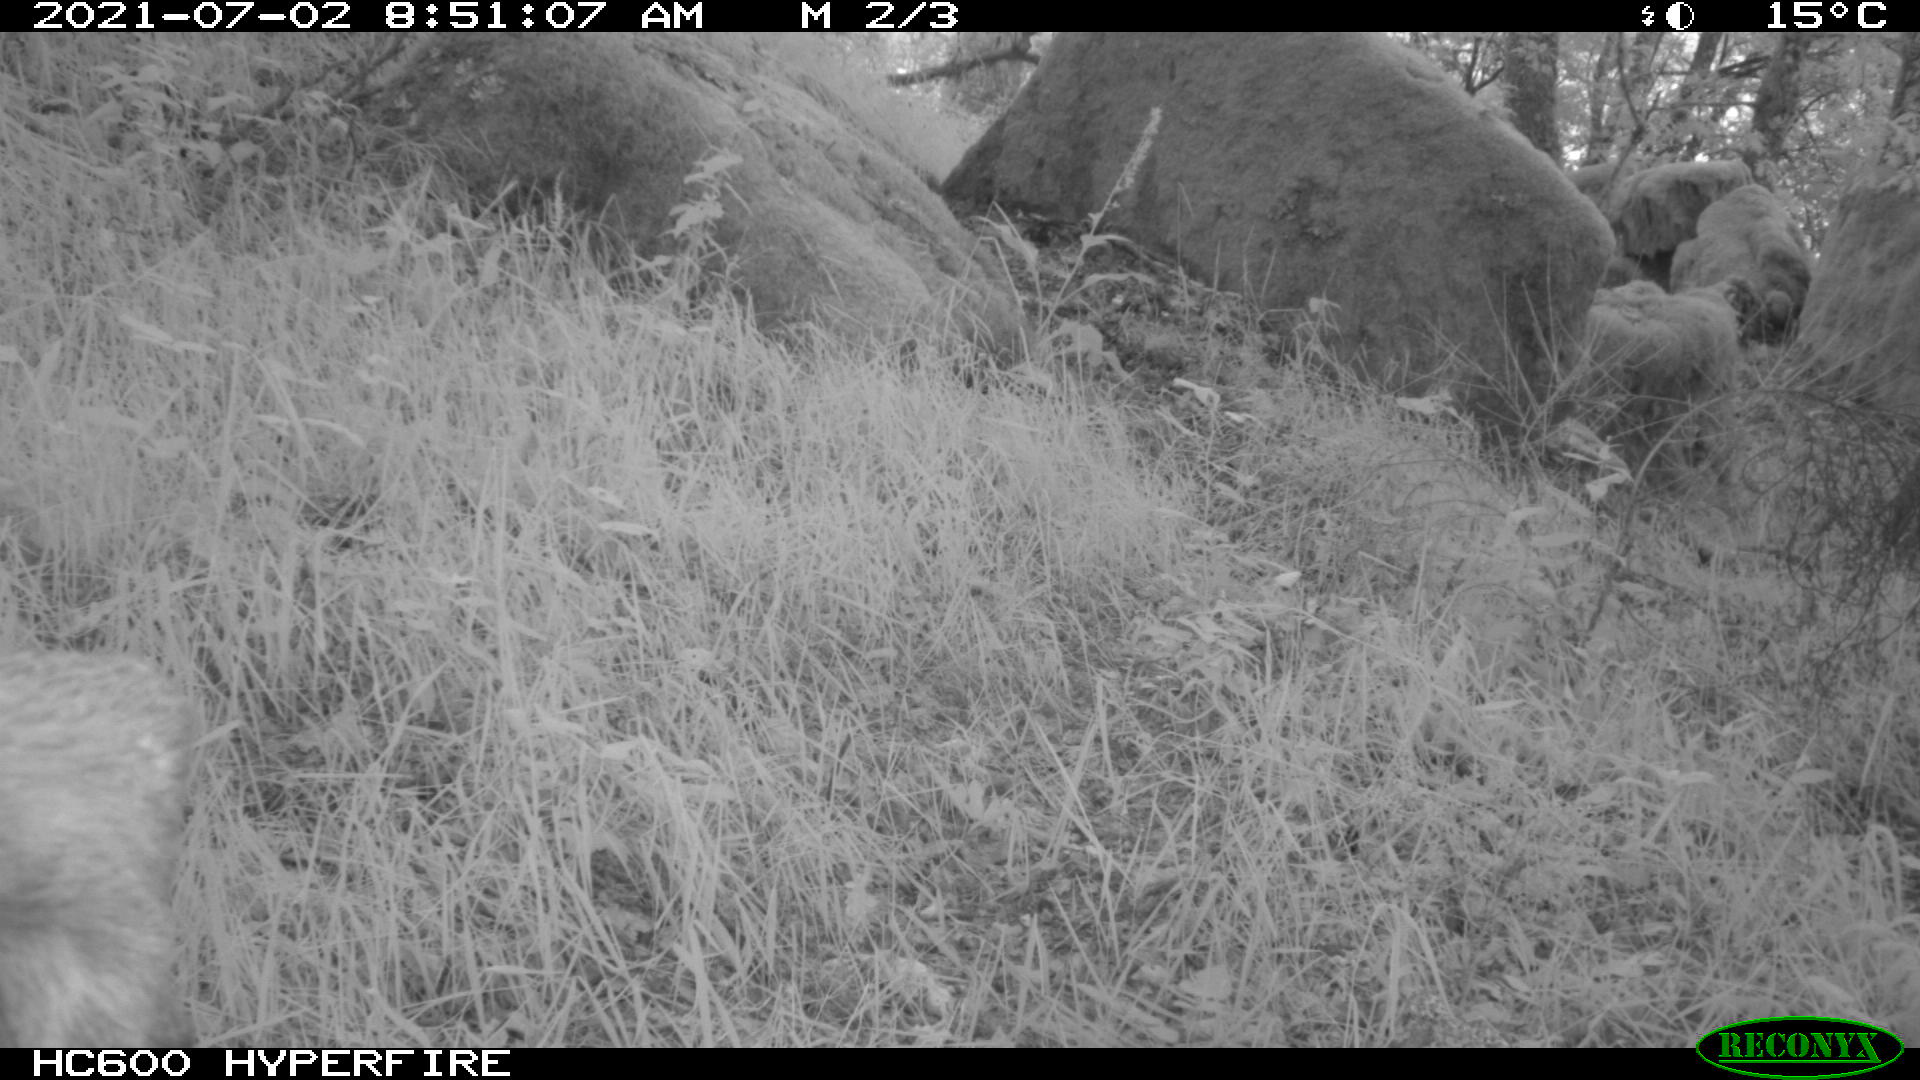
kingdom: Animalia
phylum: Chordata
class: Mammalia
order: Artiodactyla
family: Cervidae
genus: Capreolus
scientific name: Capreolus capreolus
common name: Western roe deer
